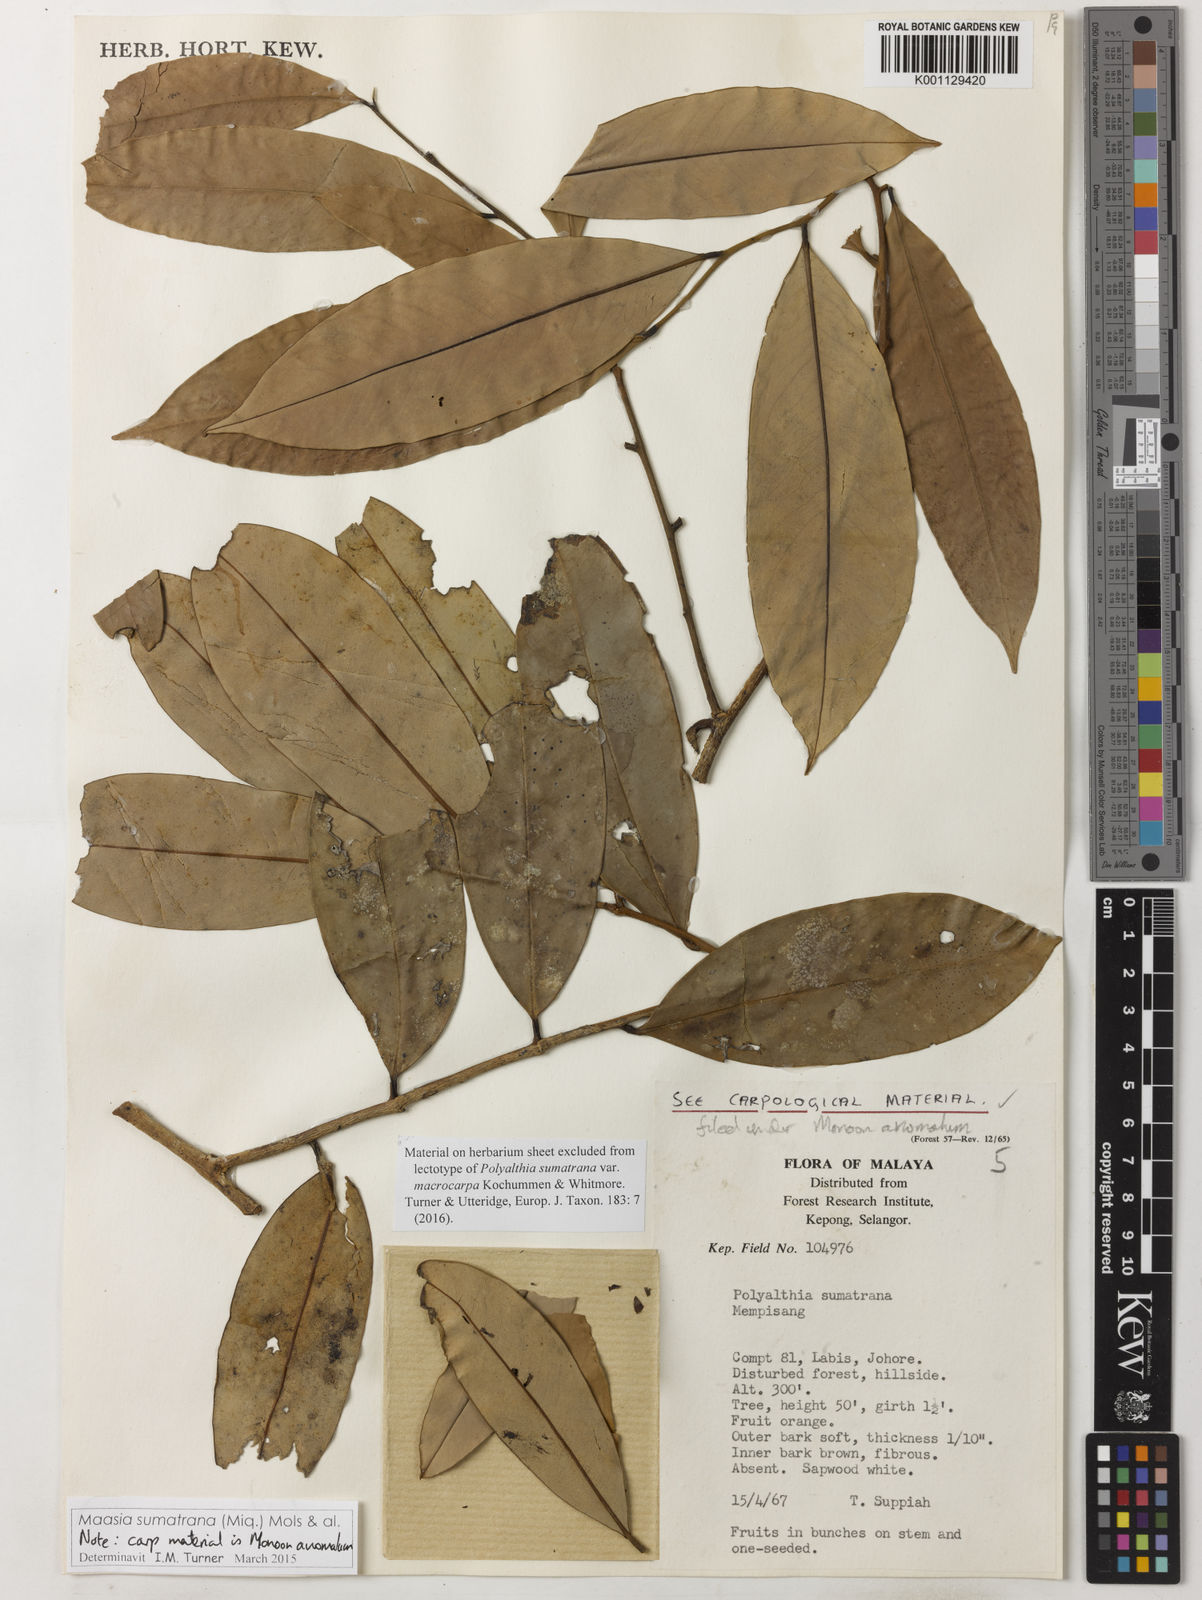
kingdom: Plantae
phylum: Tracheophyta
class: Magnoliopsida
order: Magnoliales
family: Annonaceae
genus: Maasia
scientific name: Maasia
